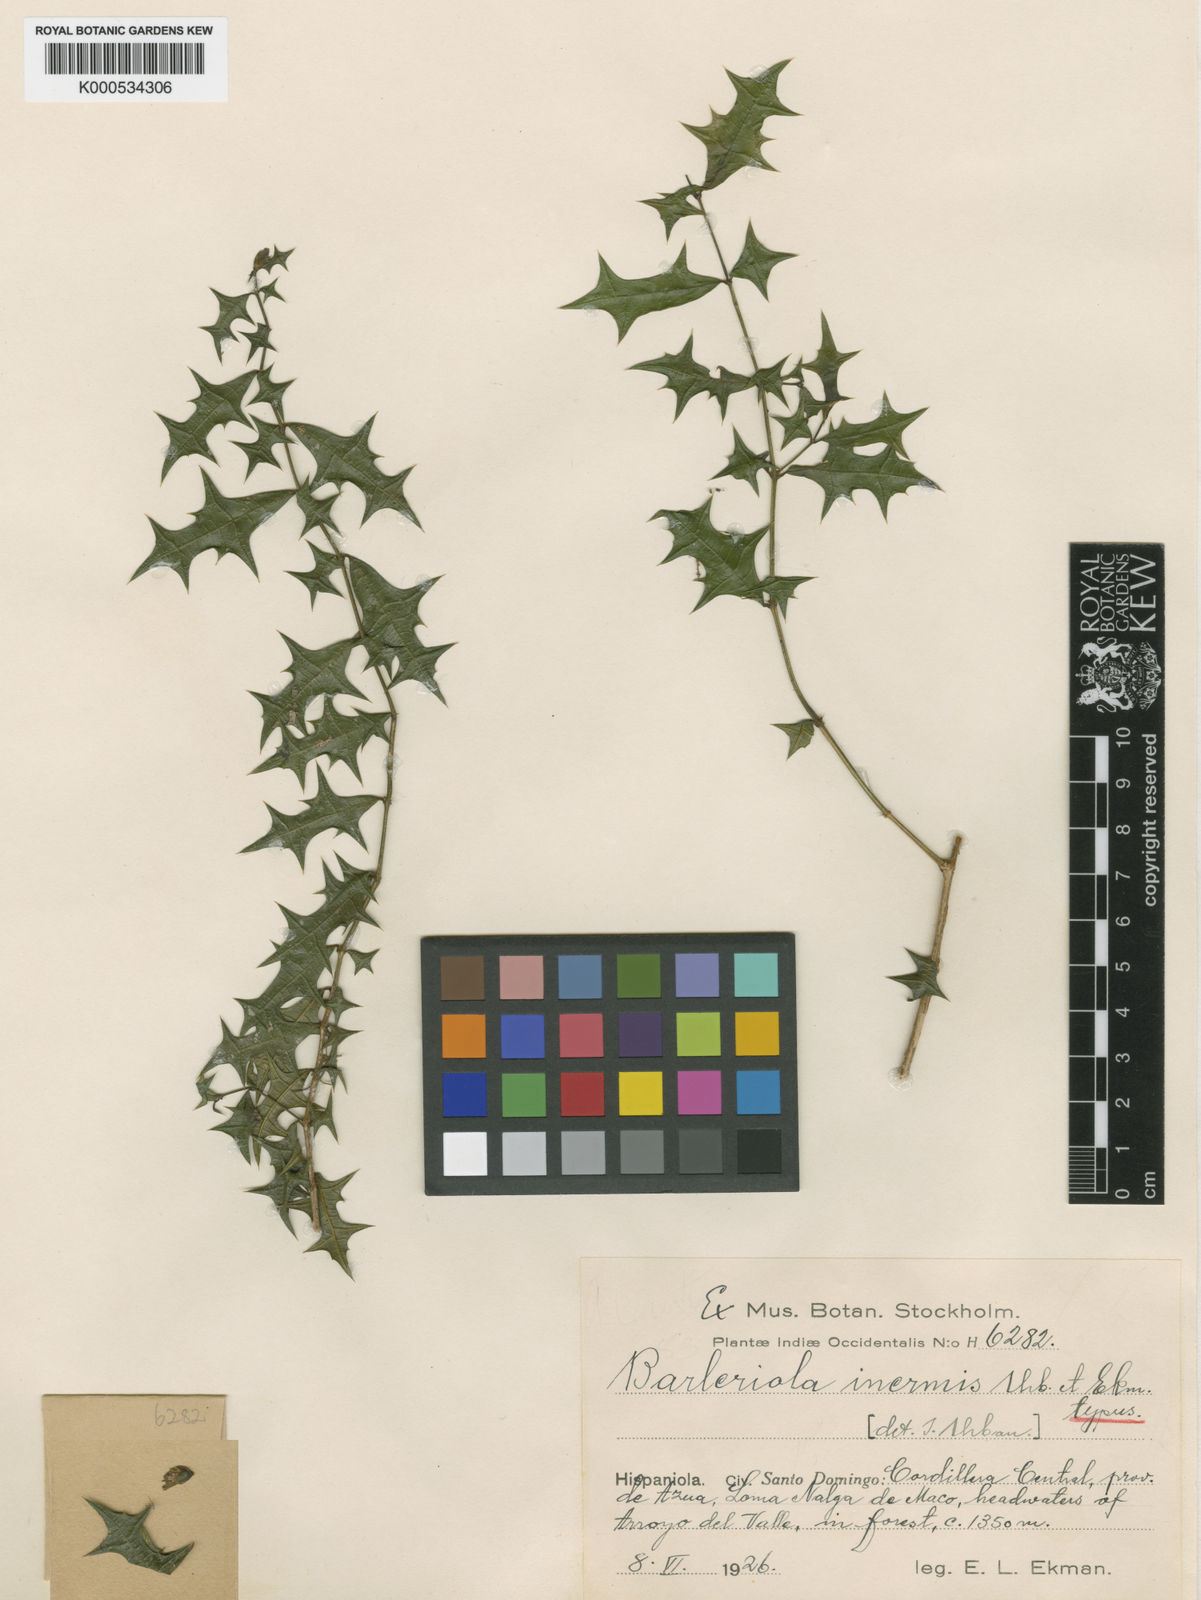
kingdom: Plantae
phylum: Tracheophyta
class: Magnoliopsida
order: Lamiales
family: Acanthaceae
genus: Barleriola
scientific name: Barleriola inermis
